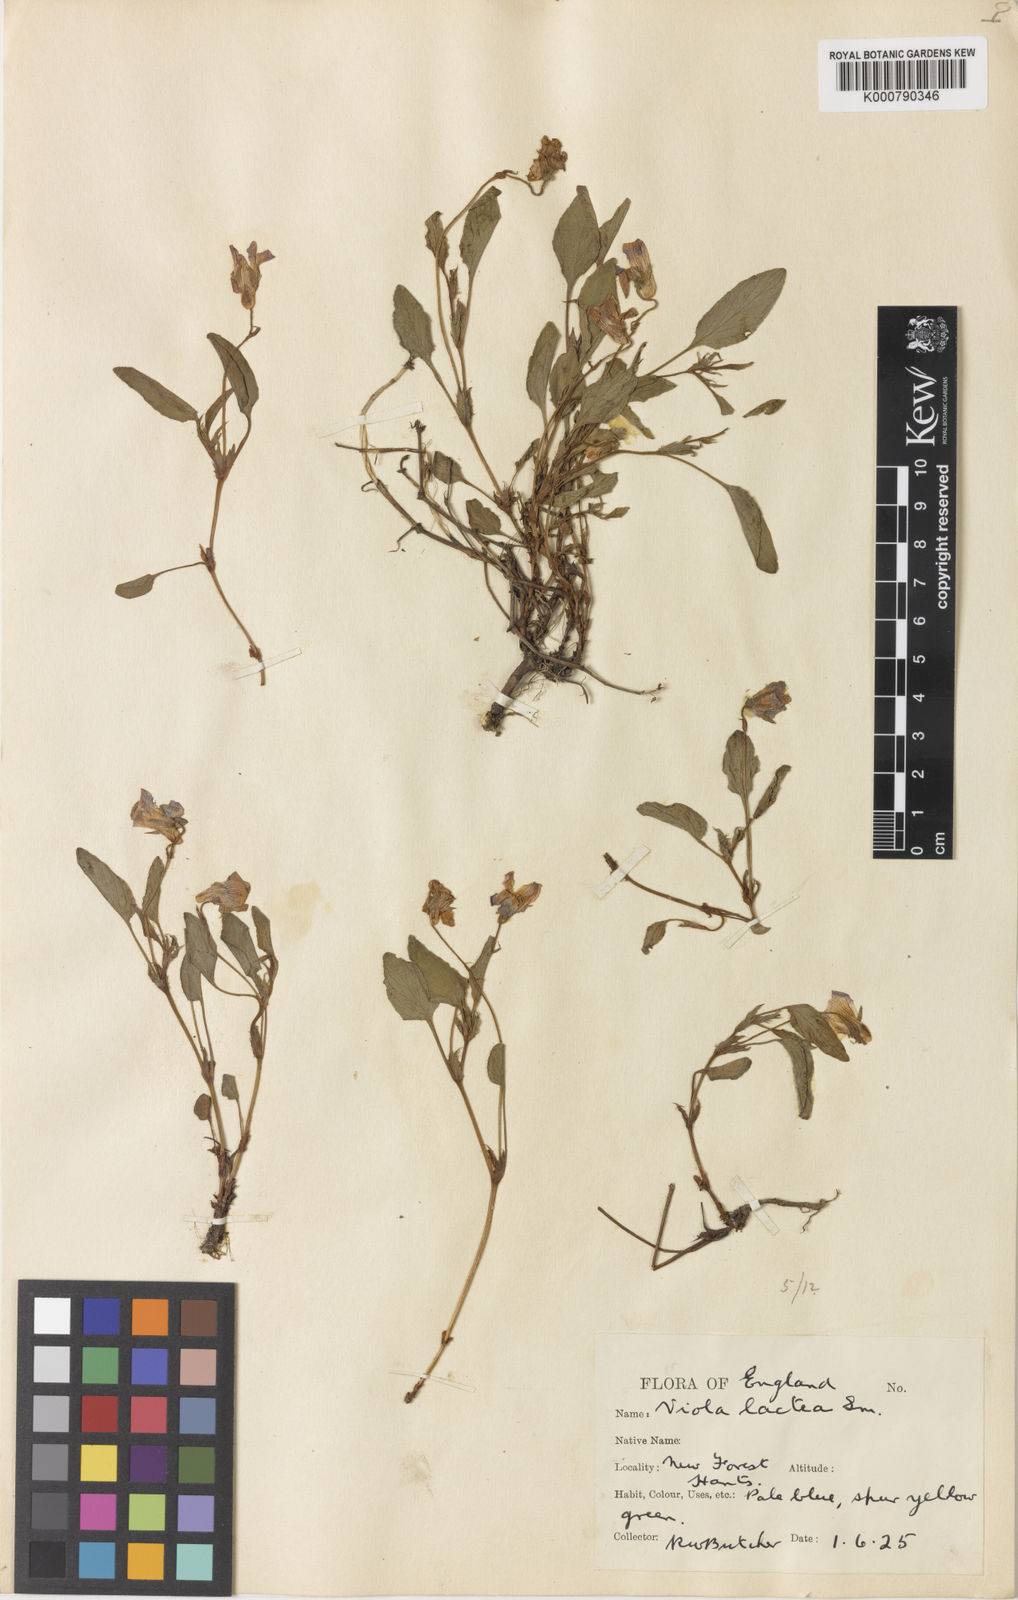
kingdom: Plantae
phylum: Tracheophyta
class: Magnoliopsida
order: Malpighiales
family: Violaceae
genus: Viola
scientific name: Viola lactea
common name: Pale dog-violet
